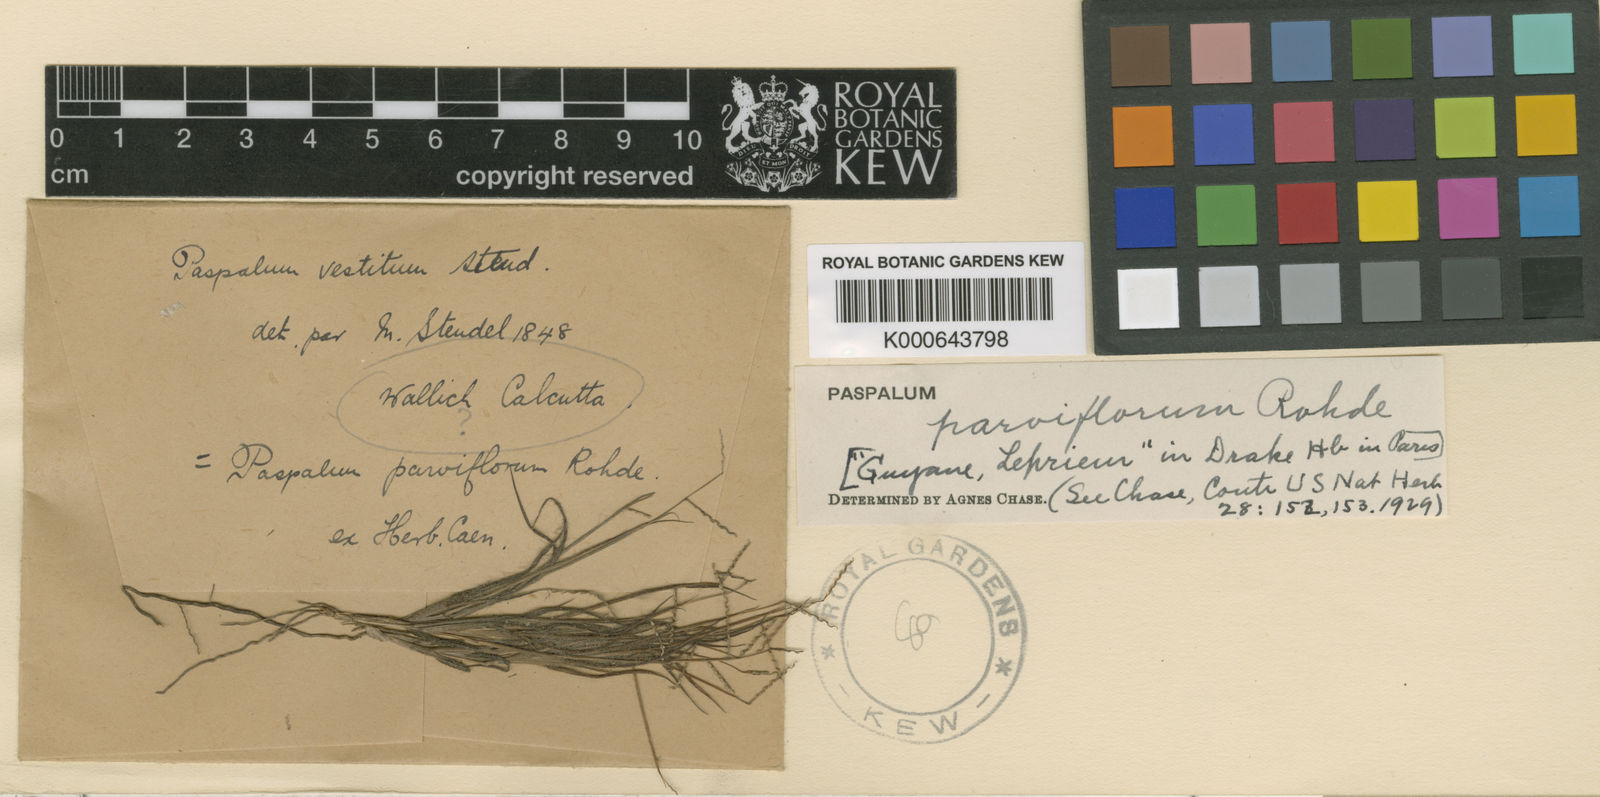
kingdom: Plantae
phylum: Tracheophyta
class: Liliopsida
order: Poales
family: Poaceae
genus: Paspalum
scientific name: Paspalum
